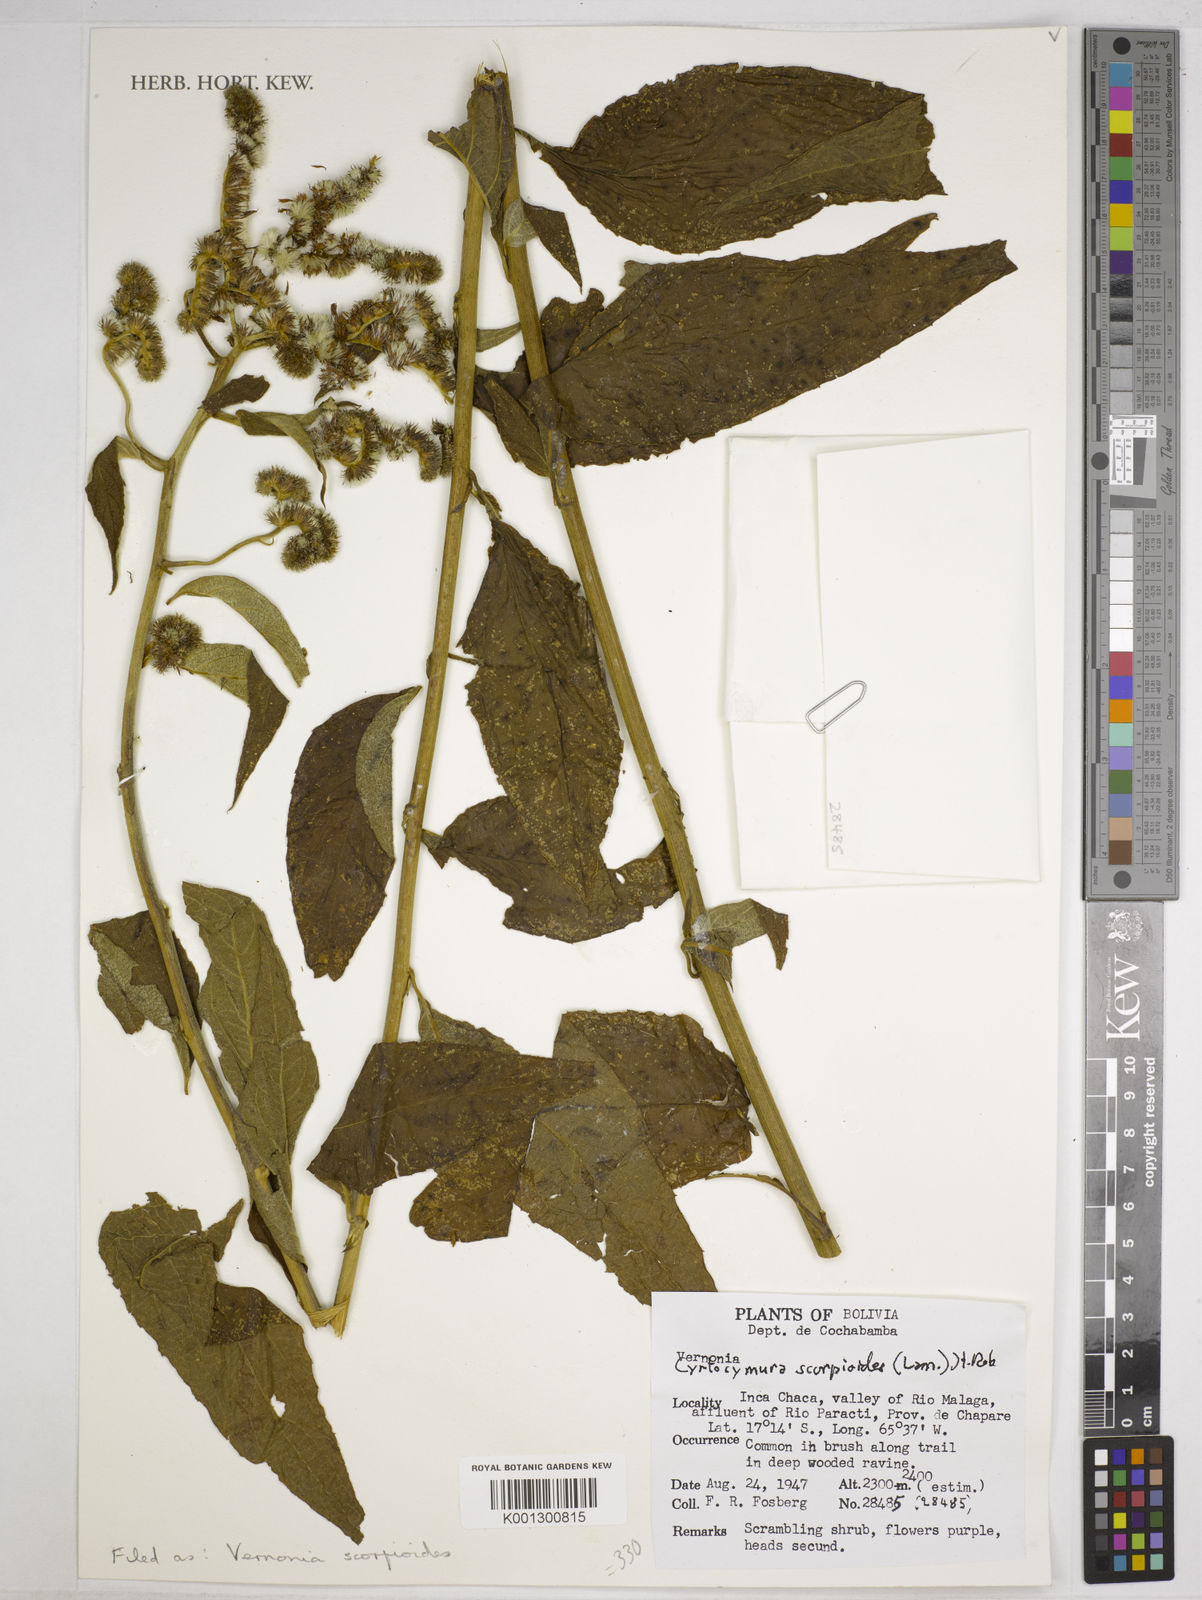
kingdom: Plantae
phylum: Tracheophyta
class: Magnoliopsida
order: Asterales
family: Asteraceae
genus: Cyrtocymura
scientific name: Cyrtocymura scorpioides
